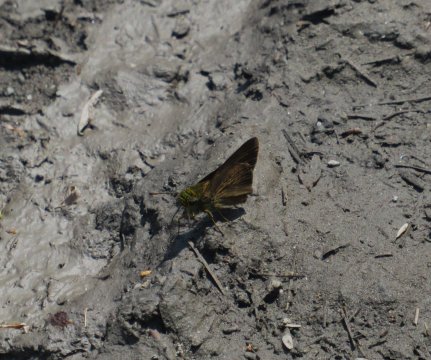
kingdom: Animalia
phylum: Arthropoda
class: Insecta
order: Lepidoptera
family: Hesperiidae
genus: Euphyes
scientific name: Euphyes vestris
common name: Dun Skipper
